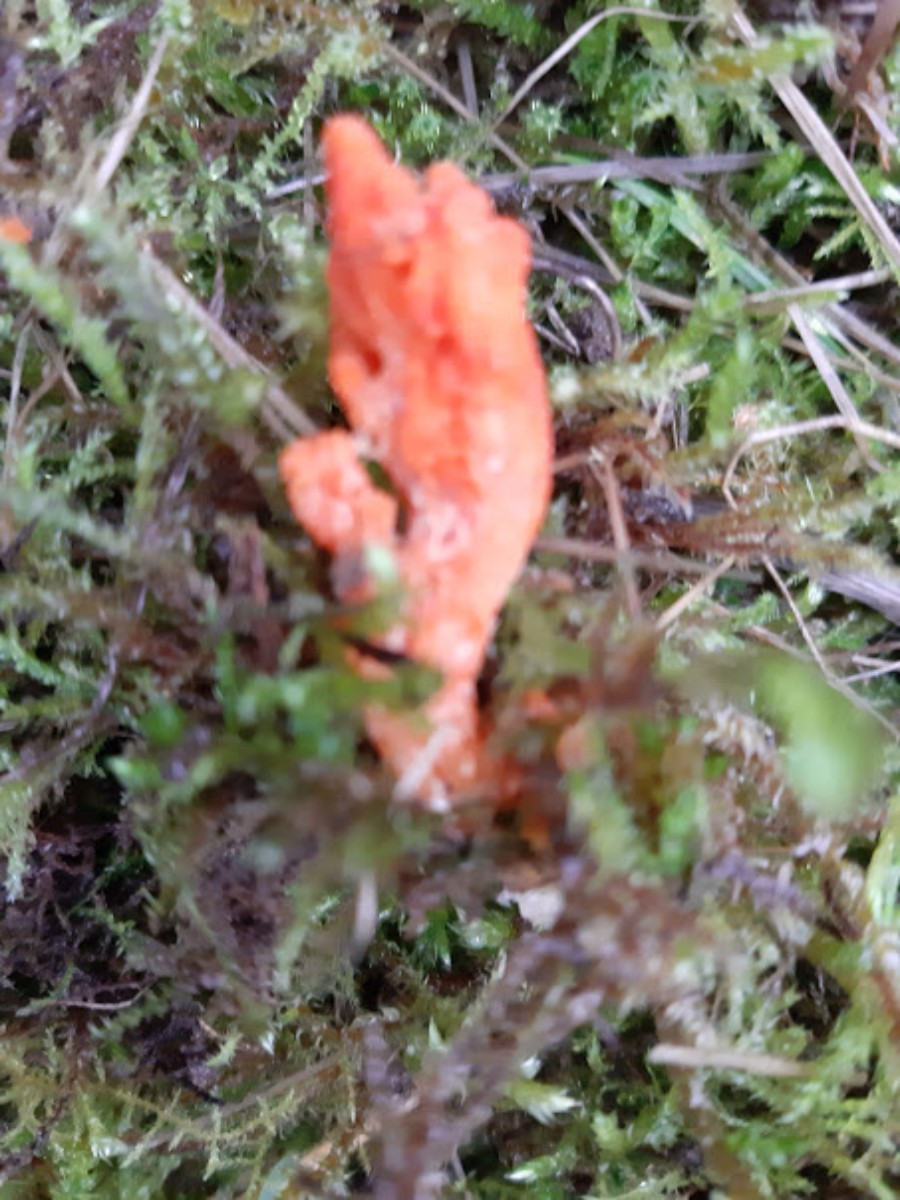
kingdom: Fungi
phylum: Ascomycota
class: Sordariomycetes
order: Hypocreales
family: Cordycipitaceae
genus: Cordyceps
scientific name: Cordyceps militaris
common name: puppe-snyltekølle
